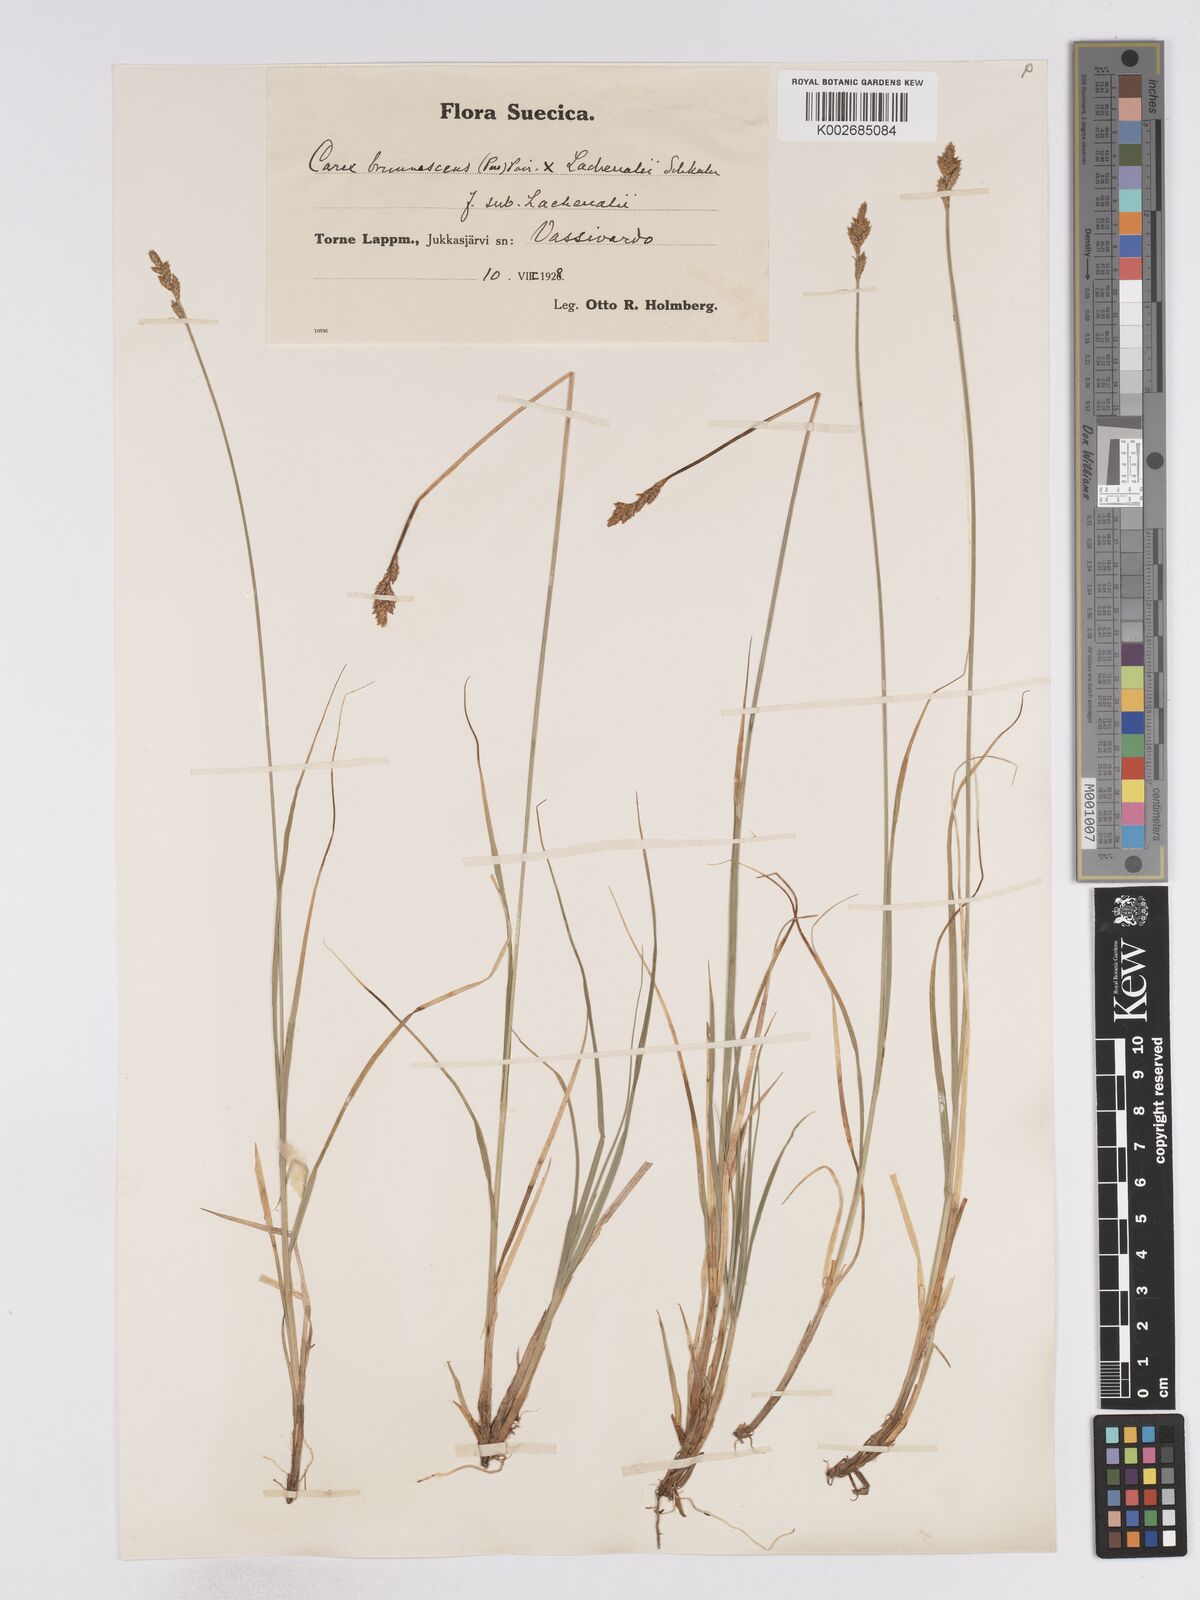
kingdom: Plantae
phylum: Tracheophyta
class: Liliopsida
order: Poales
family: Cyperaceae
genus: Carex
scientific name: Carex brunnescens
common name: Brown sedge
